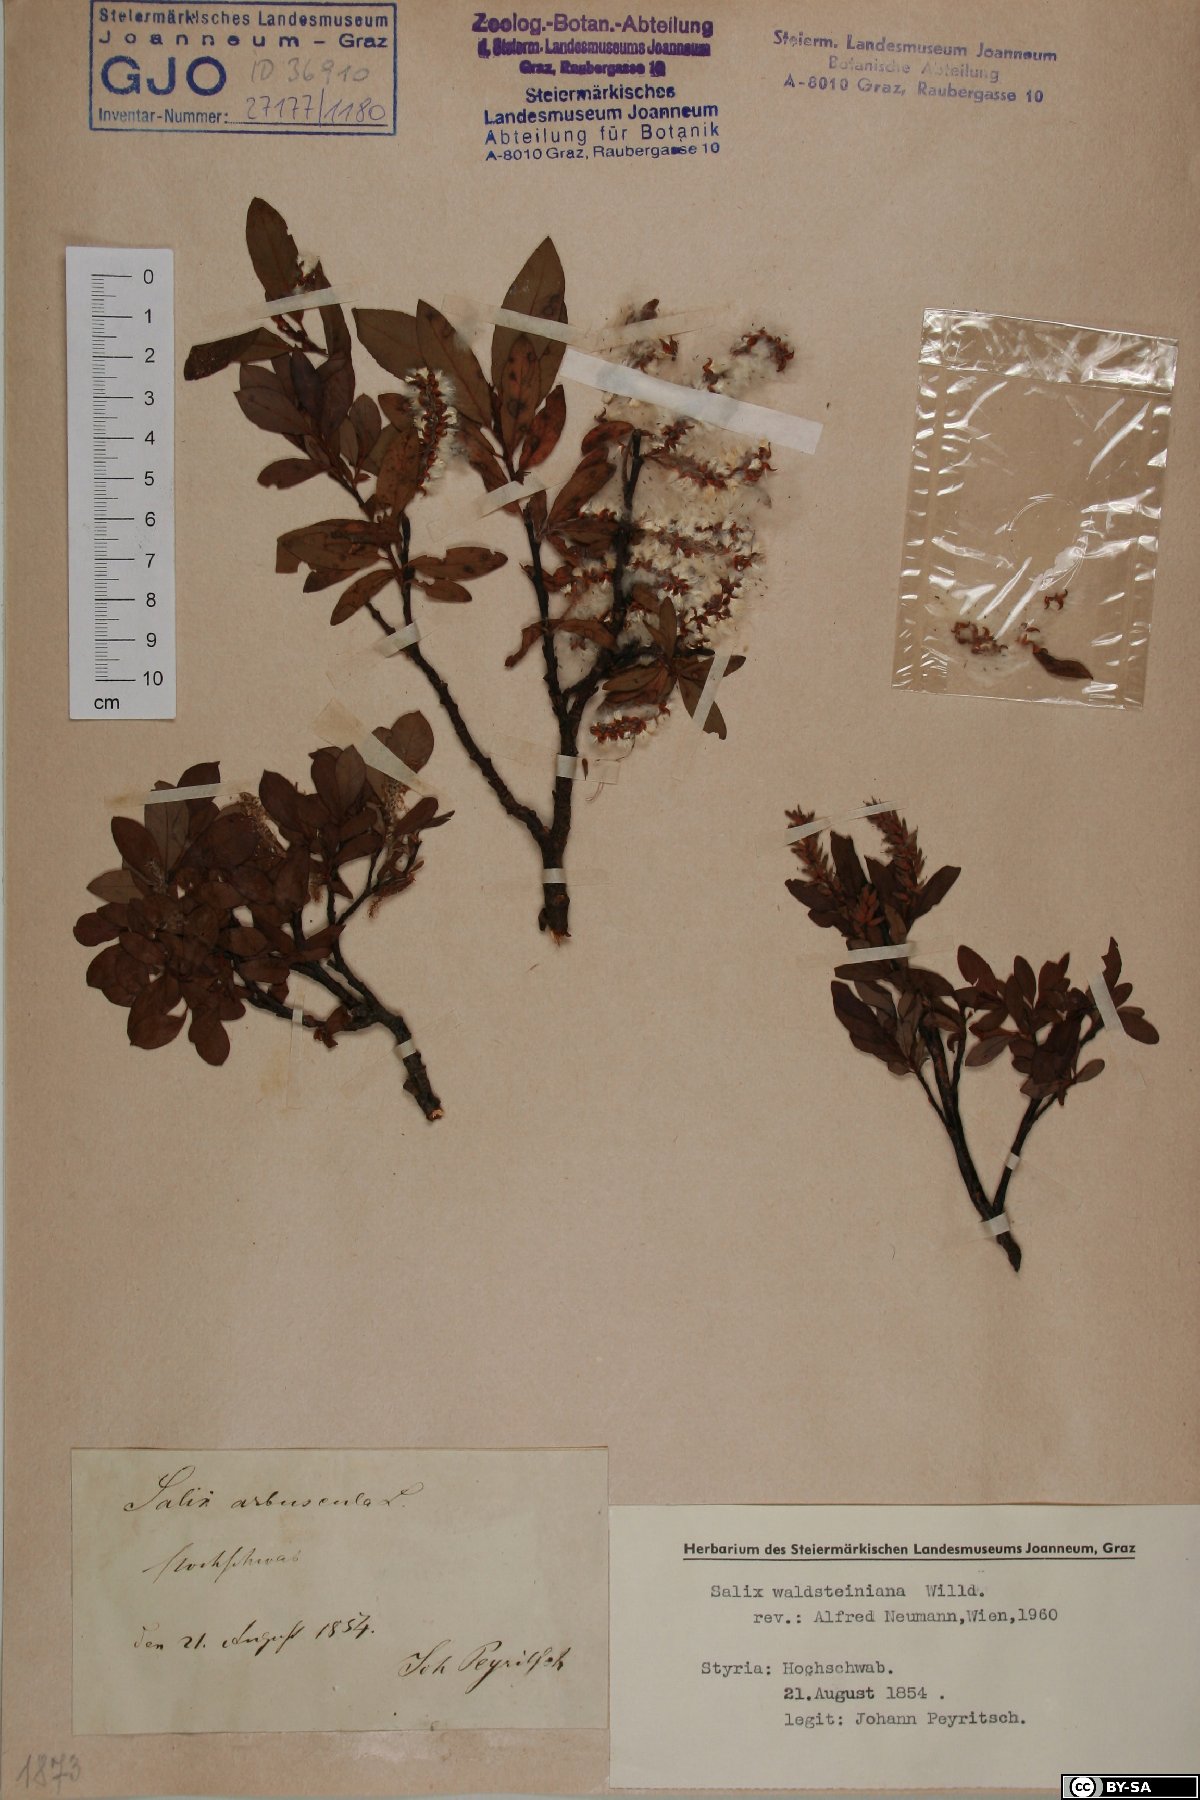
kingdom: Plantae
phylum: Tracheophyta
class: Magnoliopsida
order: Malpighiales
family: Salicaceae
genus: Salix
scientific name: Salix waldsteiniana
